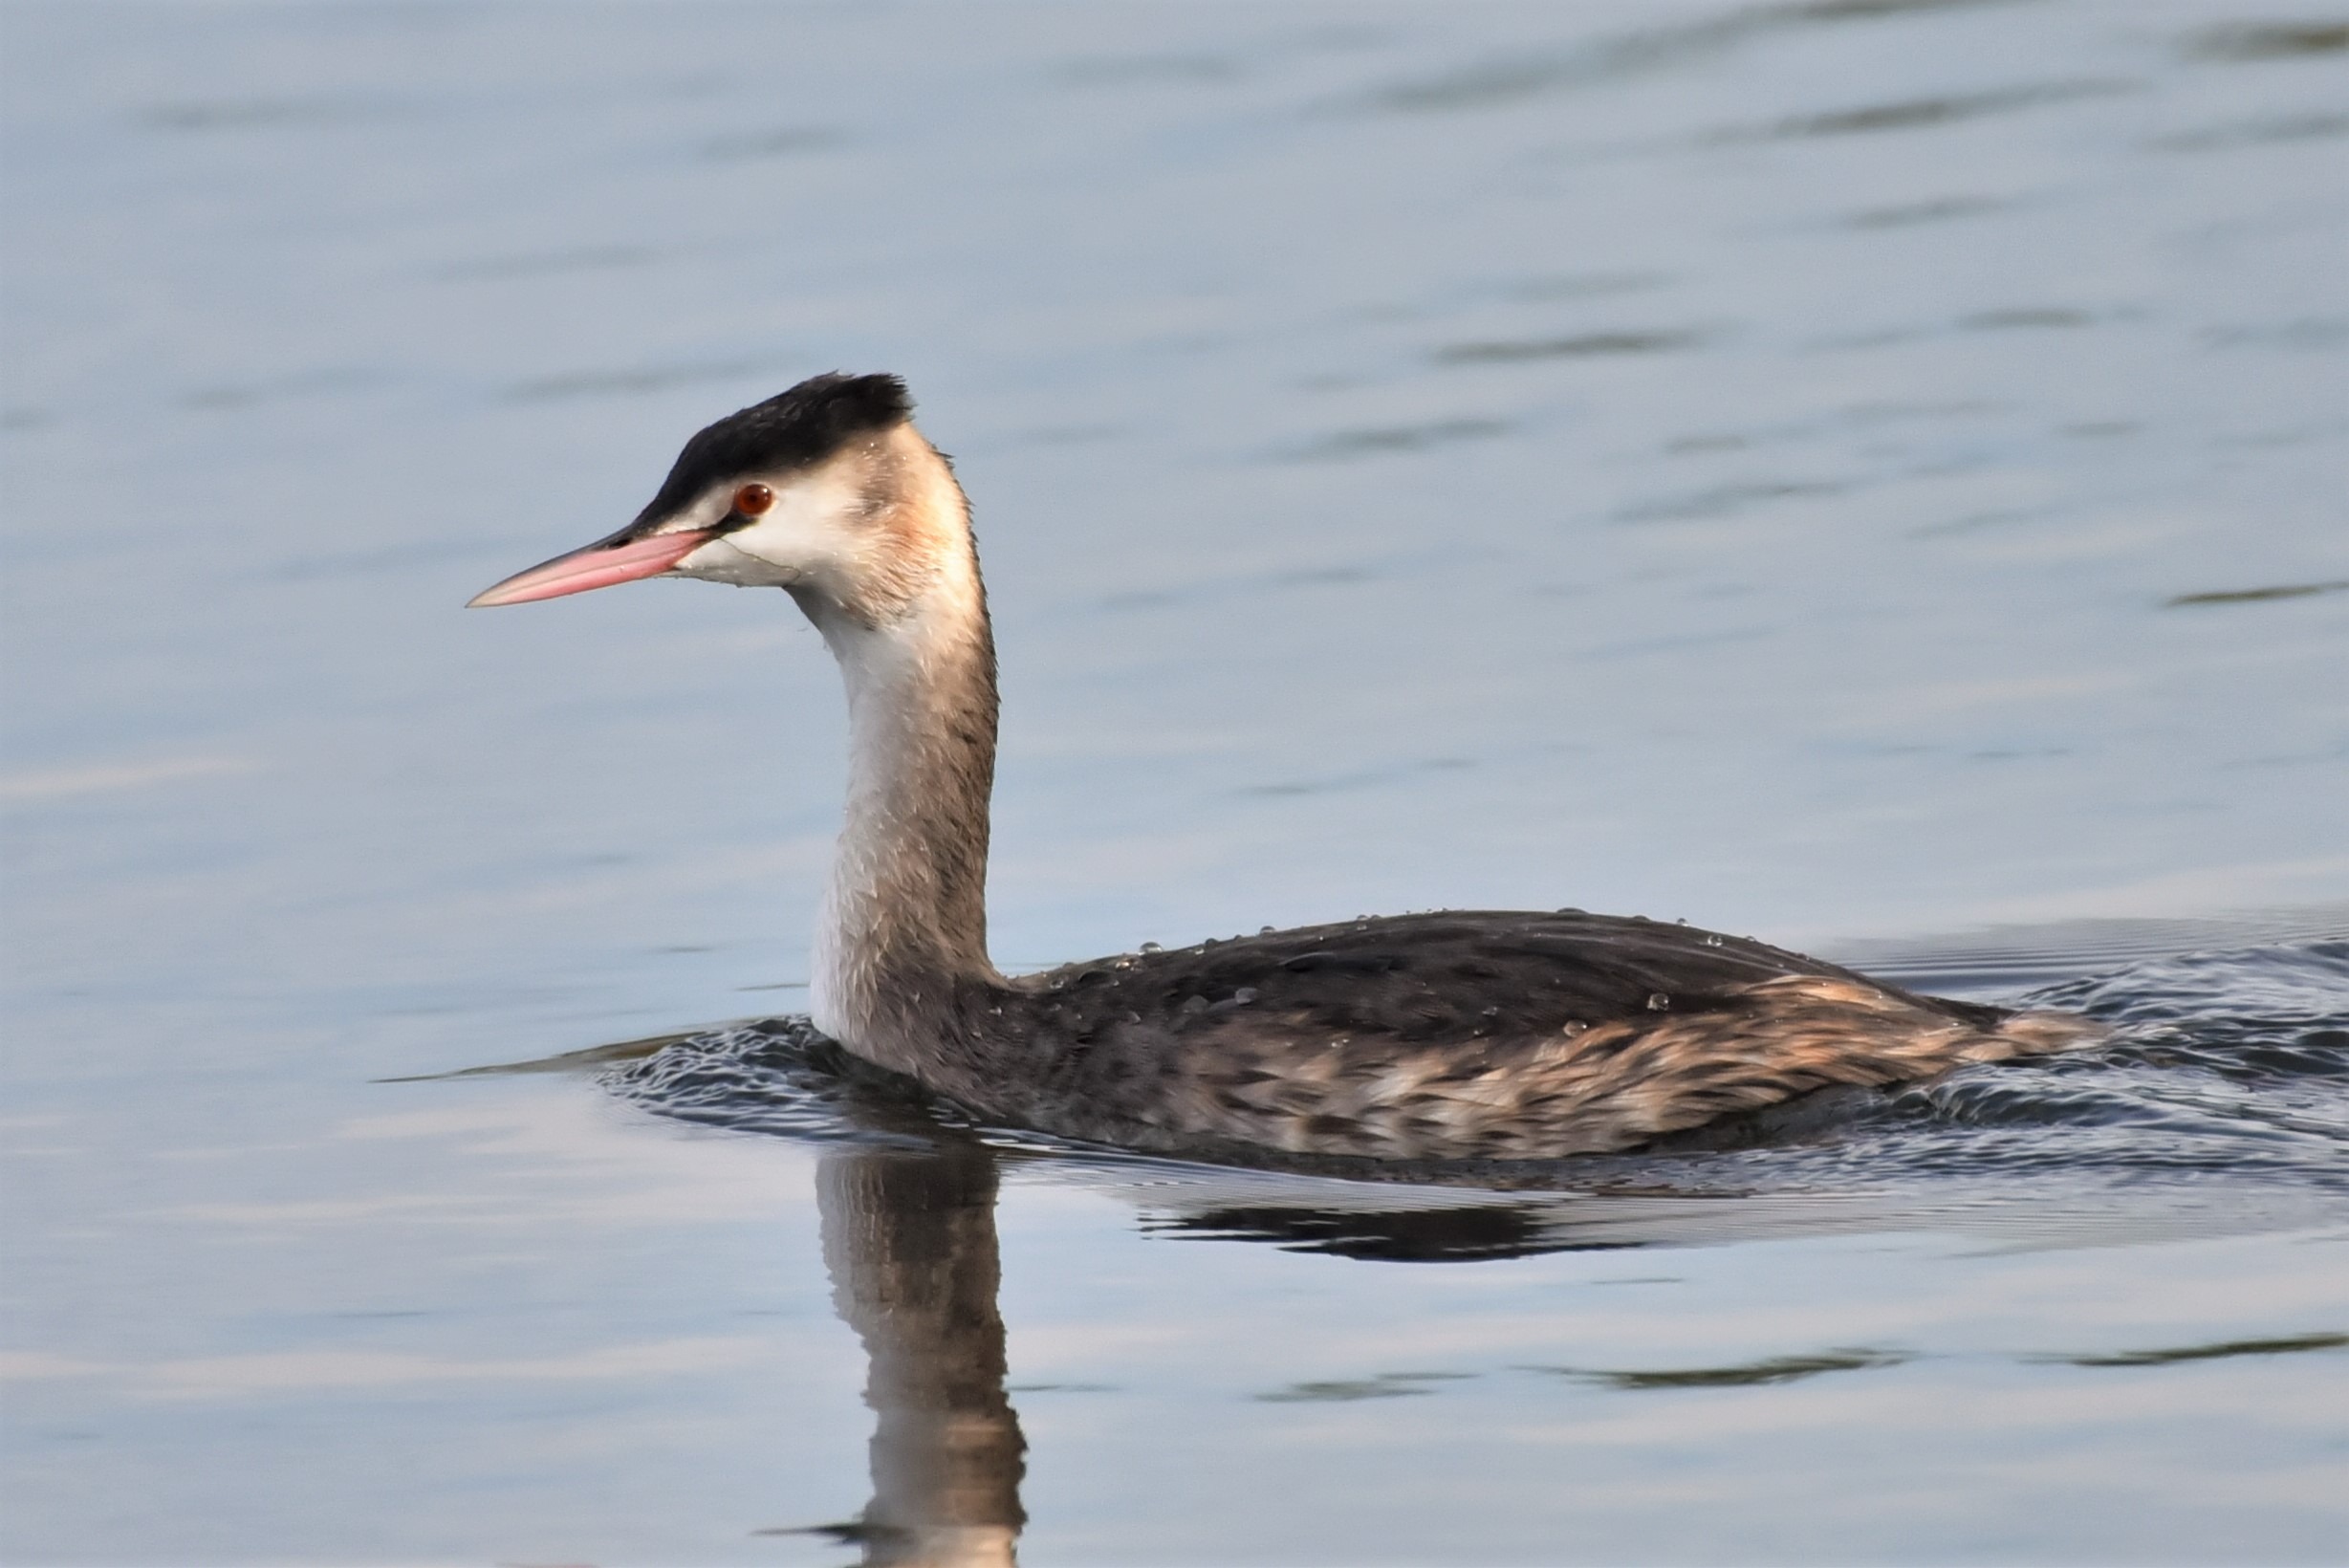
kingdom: Animalia
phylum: Chordata
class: Aves
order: Podicipediformes
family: Podicipedidae
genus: Podiceps
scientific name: Podiceps cristatus
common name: Toppet lappedykker
